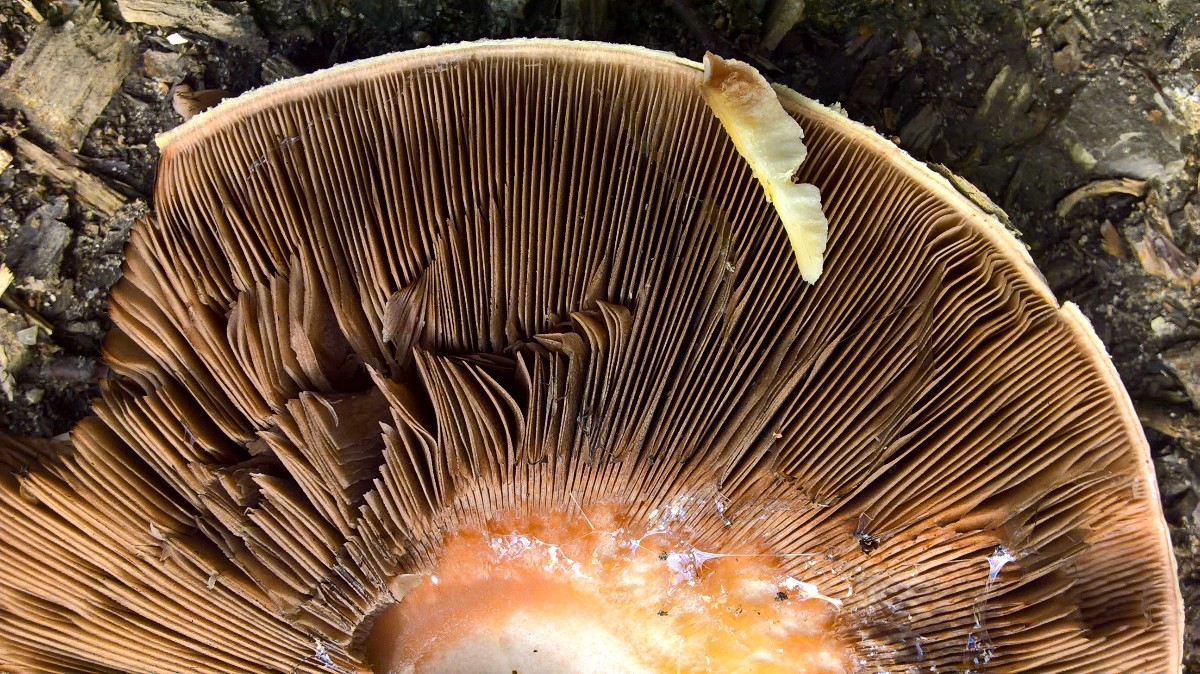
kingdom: Fungi
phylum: Basidiomycota
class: Agaricomycetes
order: Agaricales
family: Agaricaceae
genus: Agaricus
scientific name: Agaricus
